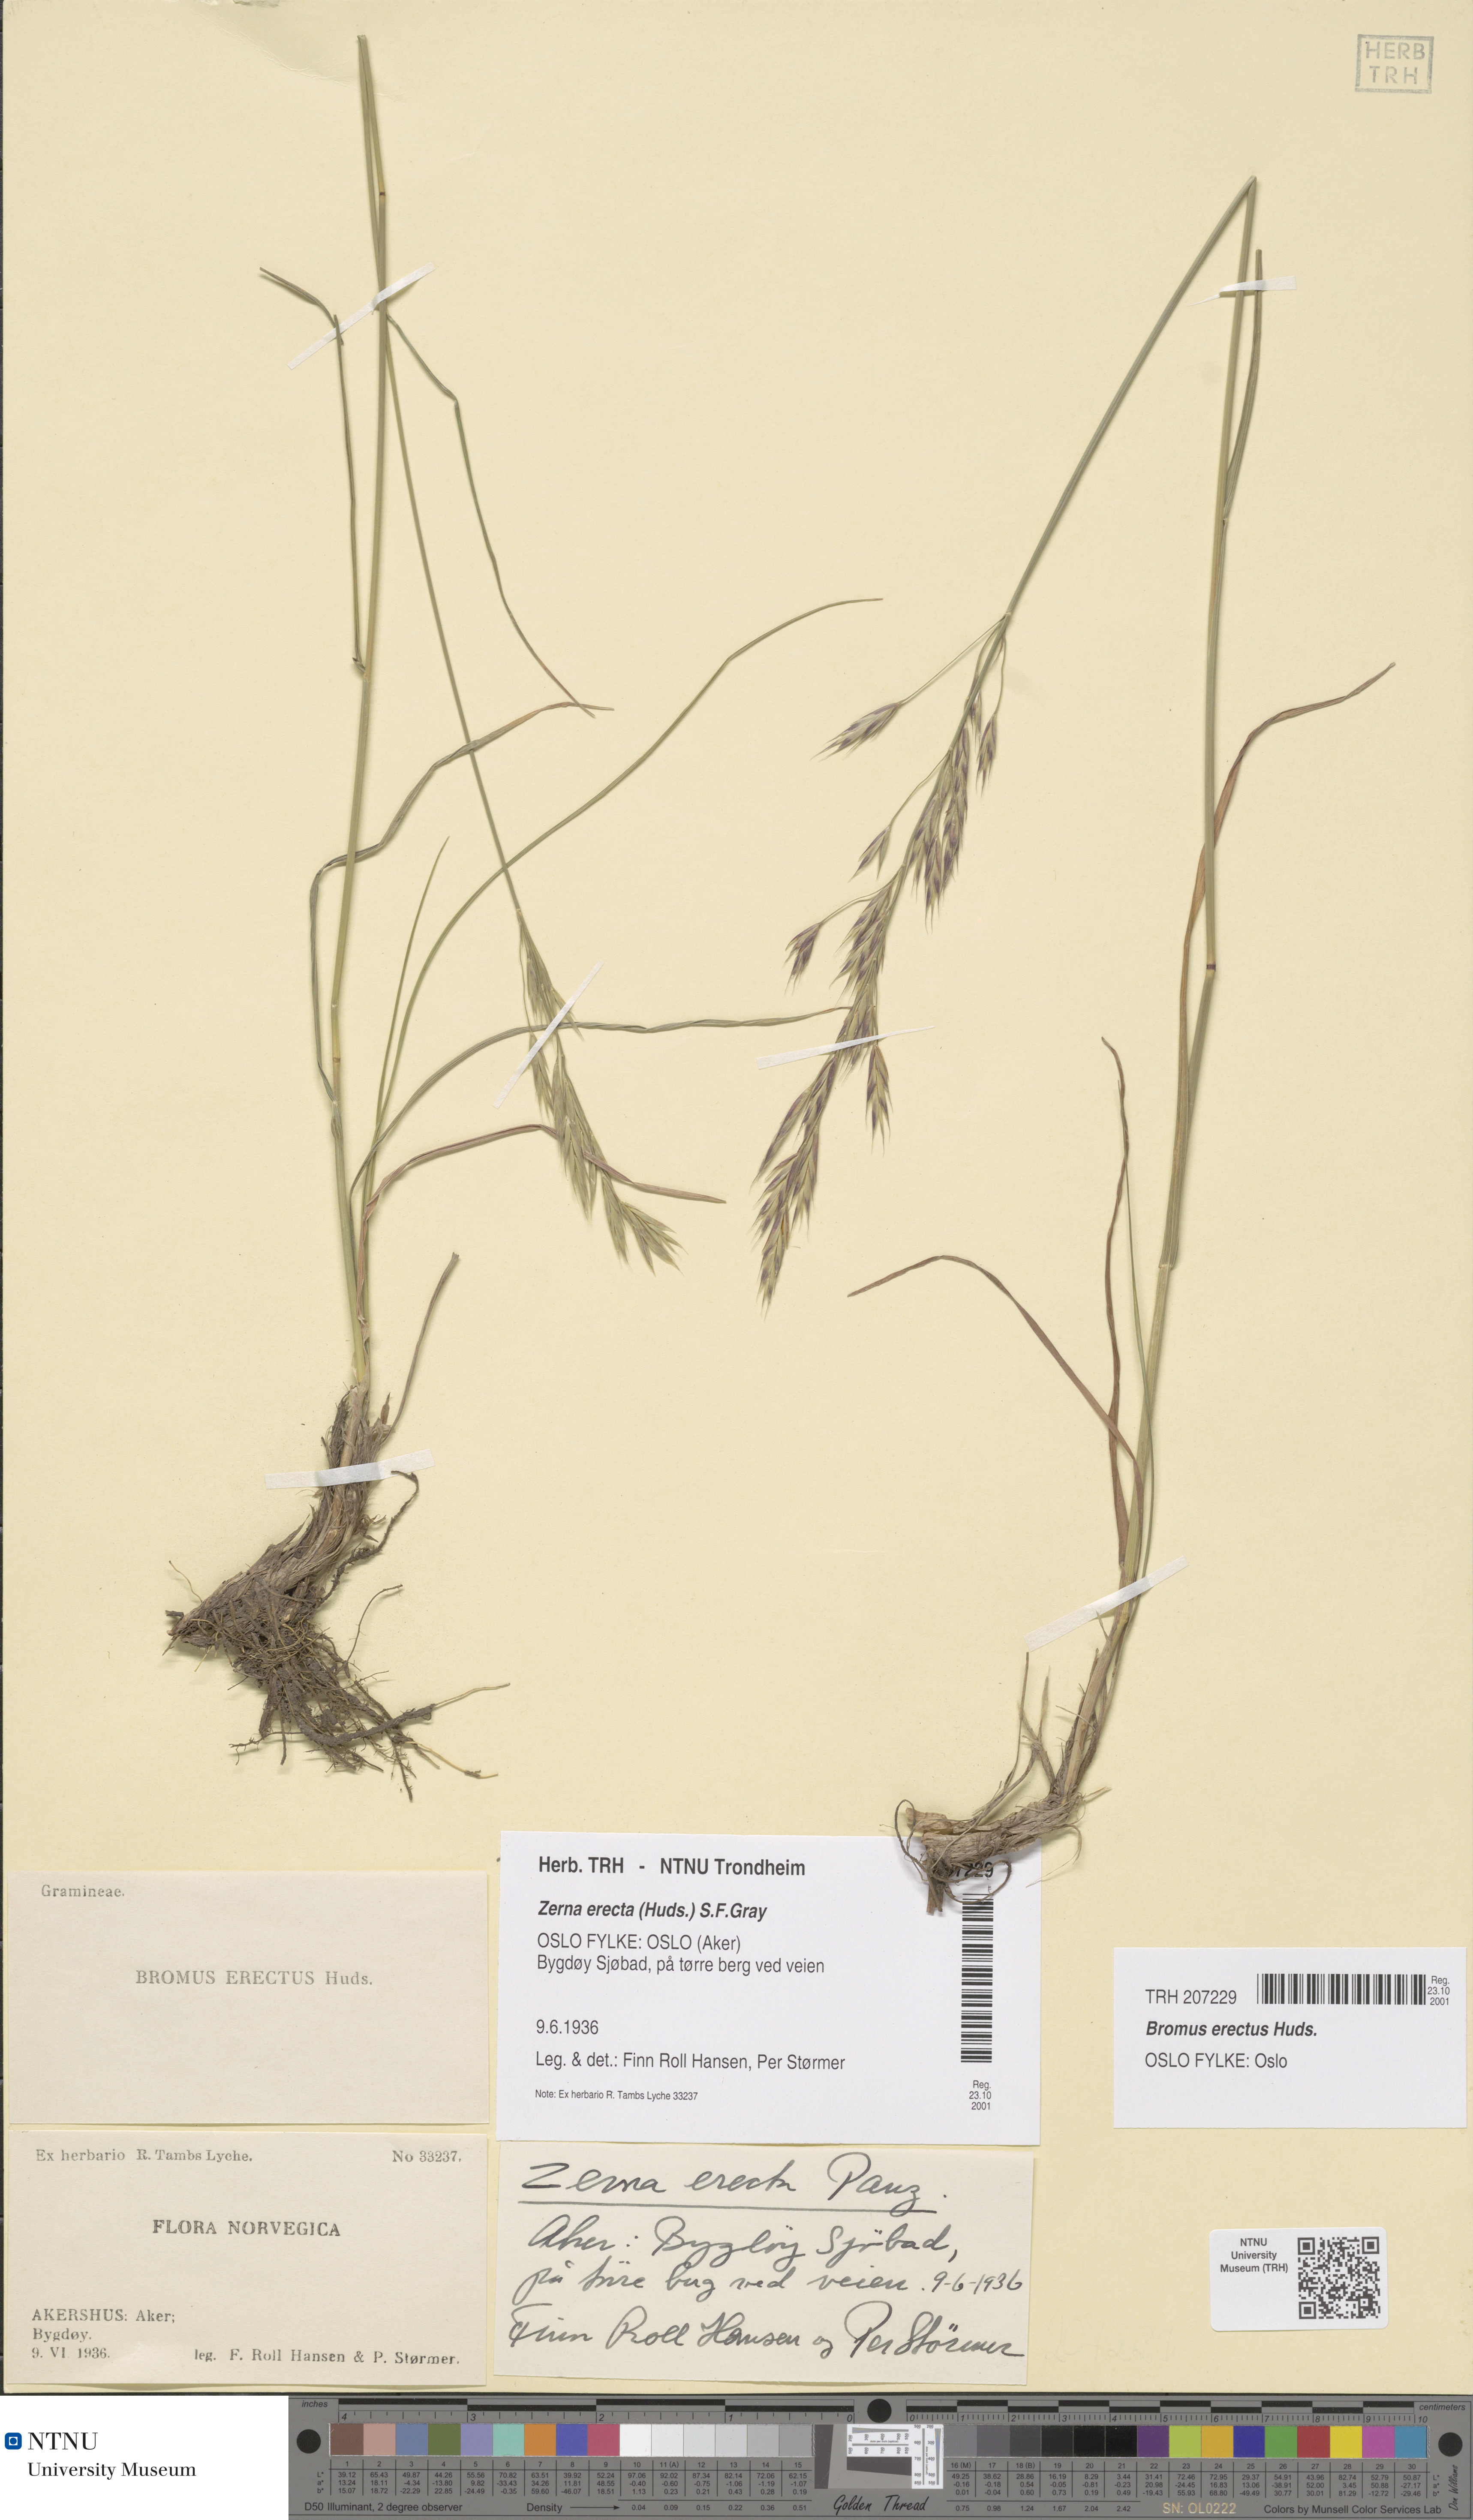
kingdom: Plantae
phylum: Tracheophyta
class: Liliopsida
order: Poales
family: Poaceae
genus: Bromus
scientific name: Bromus erectus
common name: Erect brome
